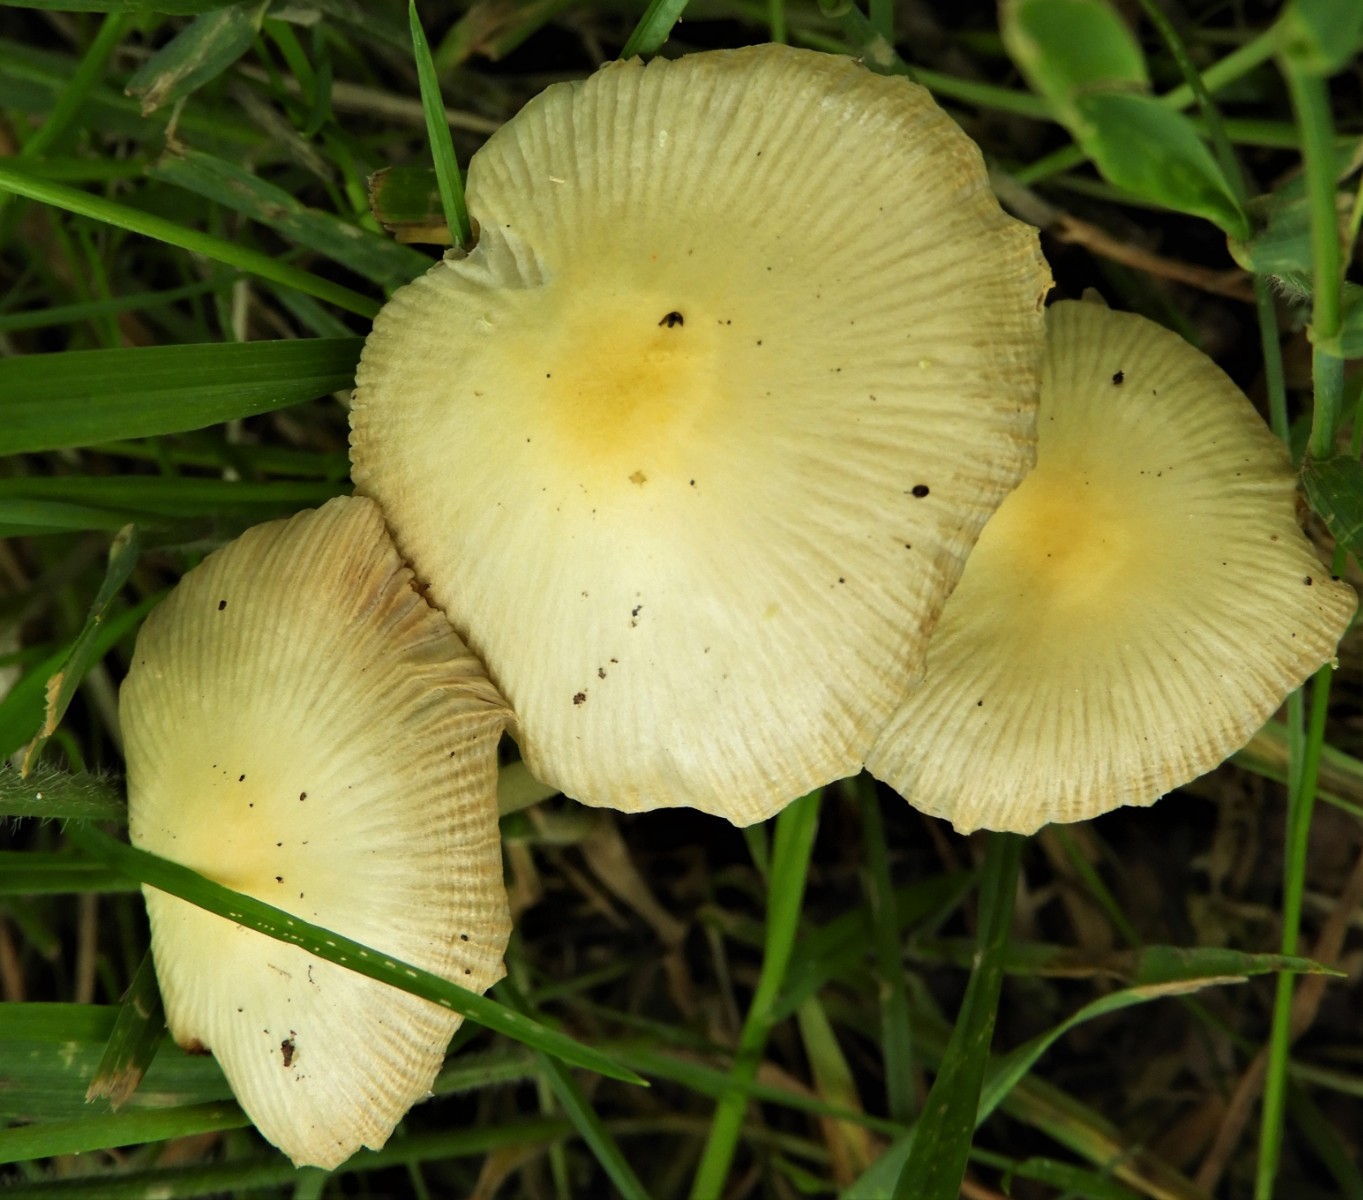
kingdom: Fungi
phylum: Basidiomycota
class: Agaricomycetes
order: Agaricales
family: Bolbitiaceae
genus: Bolbitius
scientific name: Bolbitius titubans
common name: almindelig gulhat
